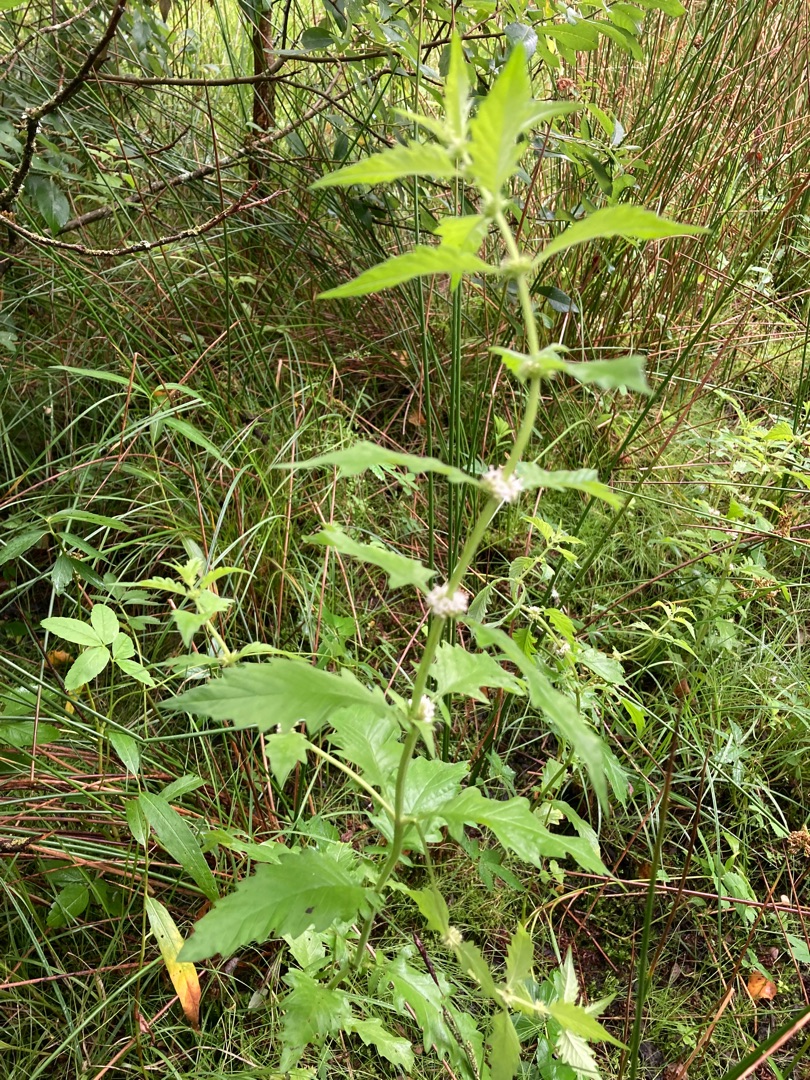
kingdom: Plantae
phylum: Tracheophyta
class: Magnoliopsida
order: Lamiales
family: Lamiaceae
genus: Lycopus
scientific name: Lycopus europaeus
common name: Sværtevæld
